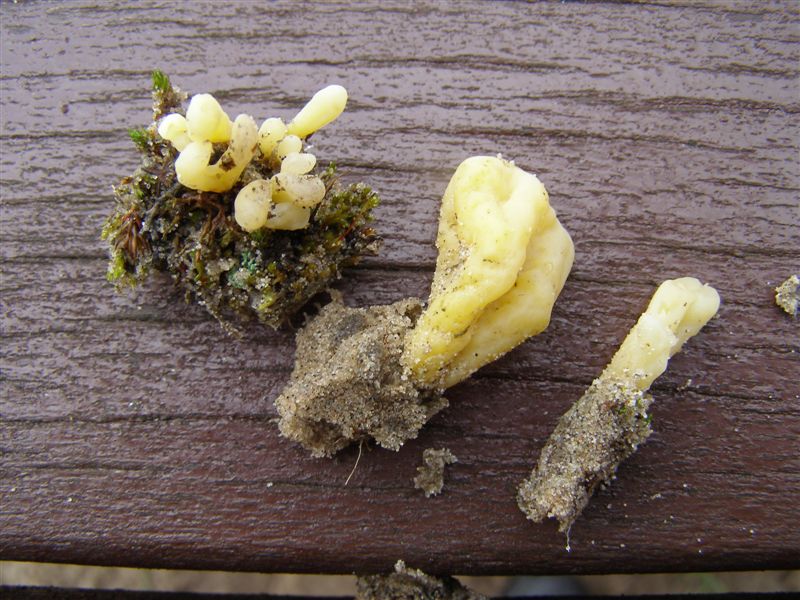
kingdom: Fungi
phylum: Basidiomycota
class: Agaricomycetes
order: Agaricales
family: Clavariaceae
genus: Clavaria
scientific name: Clavaria argillacea
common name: lerfarvet køllesvamp
